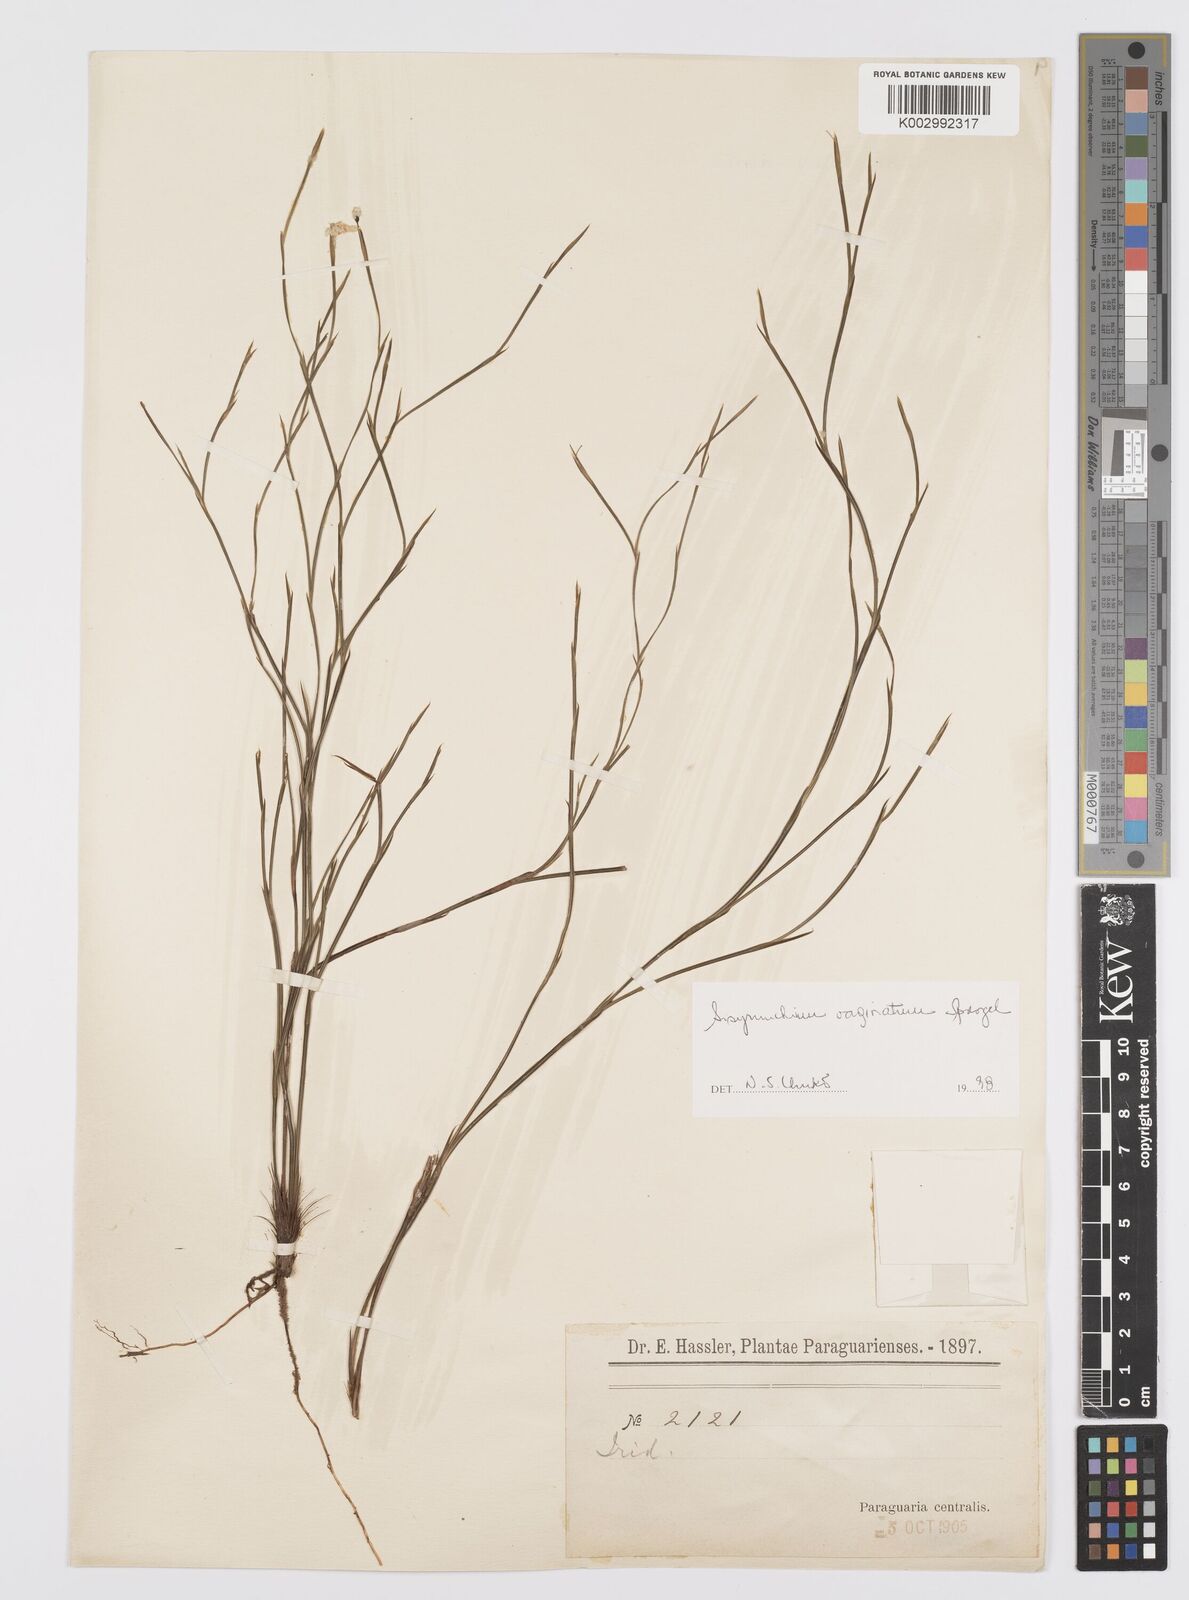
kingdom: Plantae
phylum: Tracheophyta
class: Liliopsida
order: Asparagales
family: Iridaceae
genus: Sisyrinchium
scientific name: Sisyrinchium vaginatum
